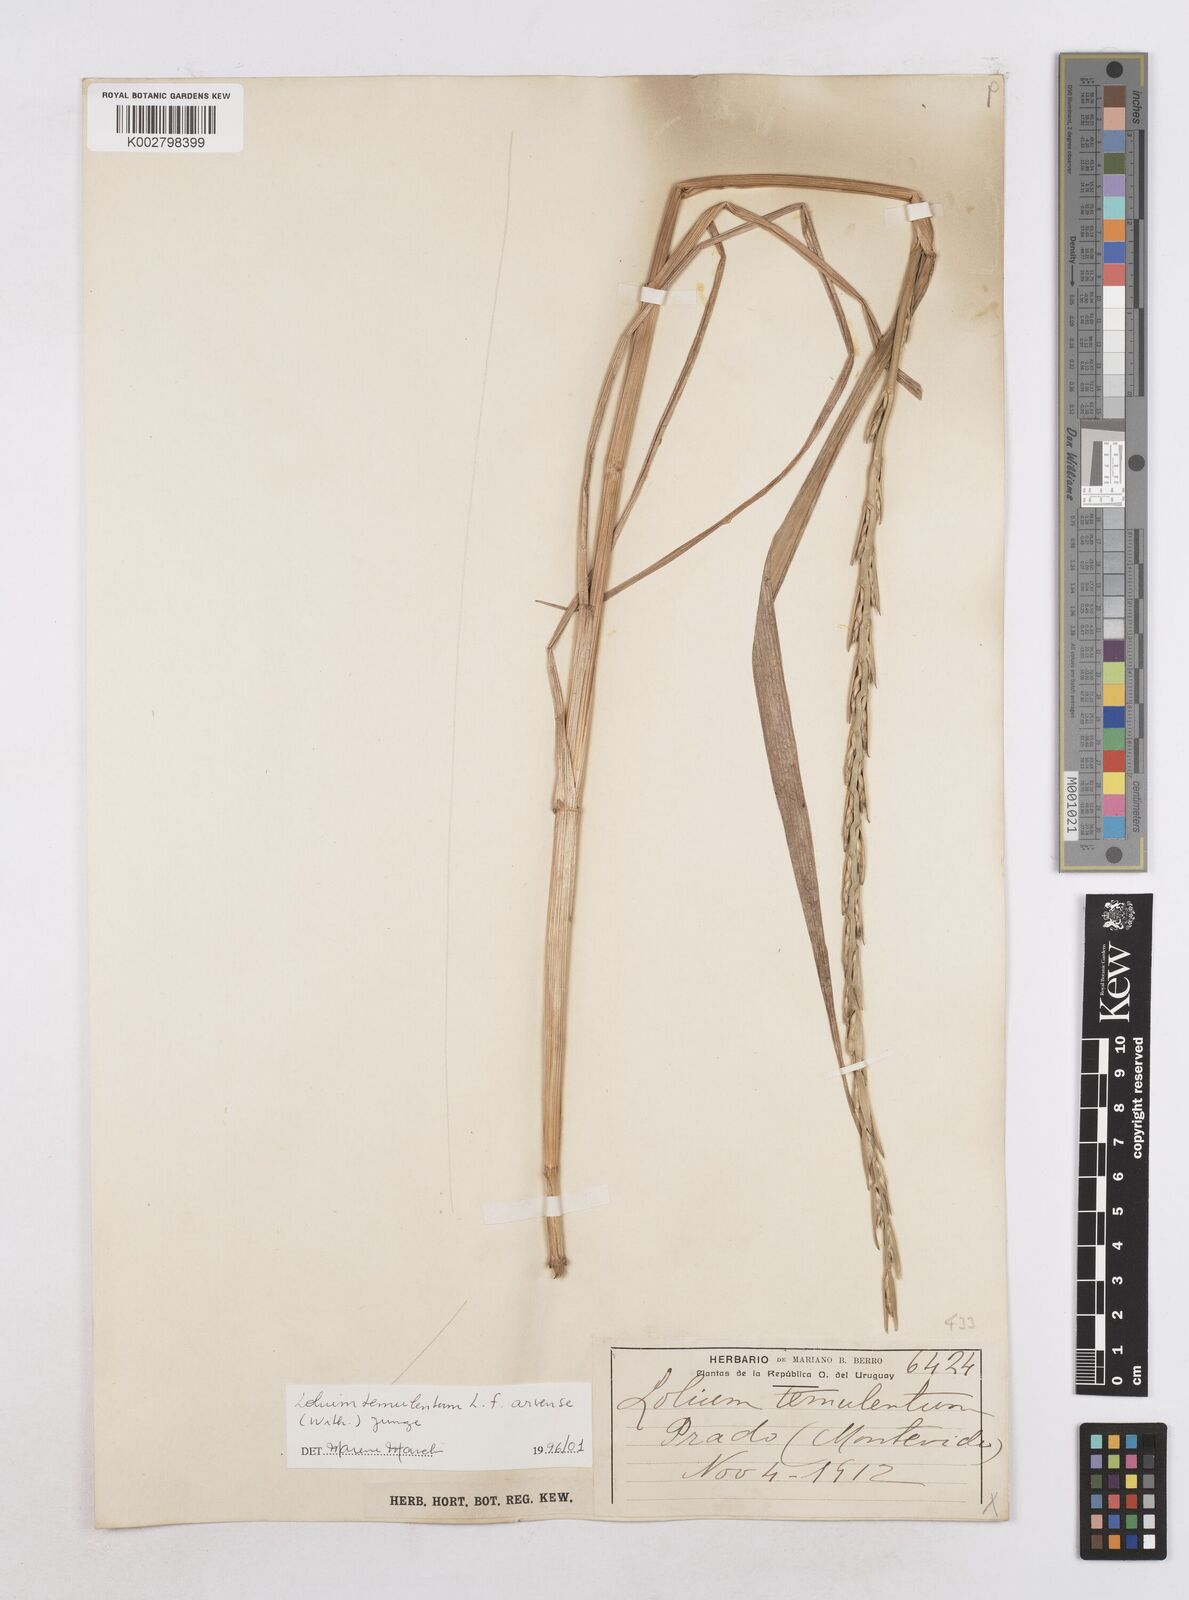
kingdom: Plantae
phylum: Tracheophyta
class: Liliopsida
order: Poales
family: Poaceae
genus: Lolium
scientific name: Lolium temulentum
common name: Darnel
